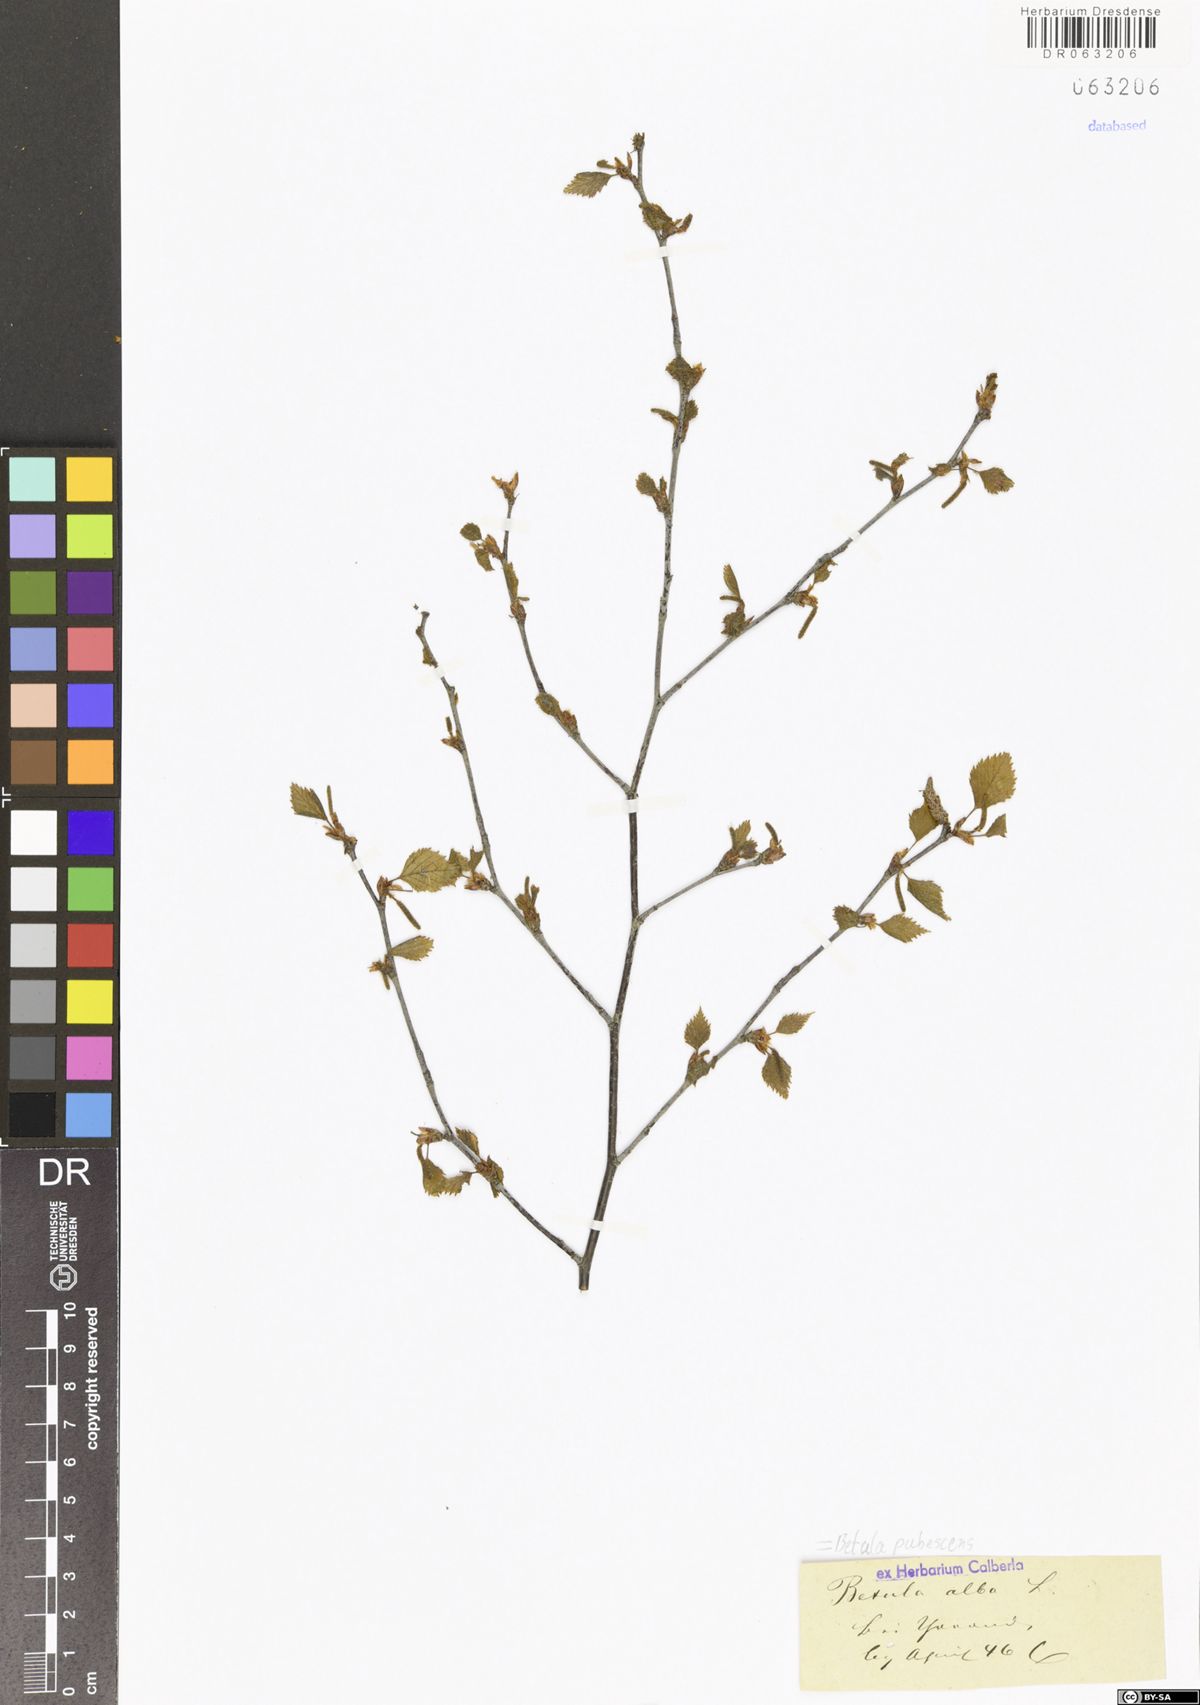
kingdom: Plantae
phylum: Tracheophyta
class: Magnoliopsida
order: Fagales
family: Betulaceae
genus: Betula
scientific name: Betula pendula
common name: Silver birch
